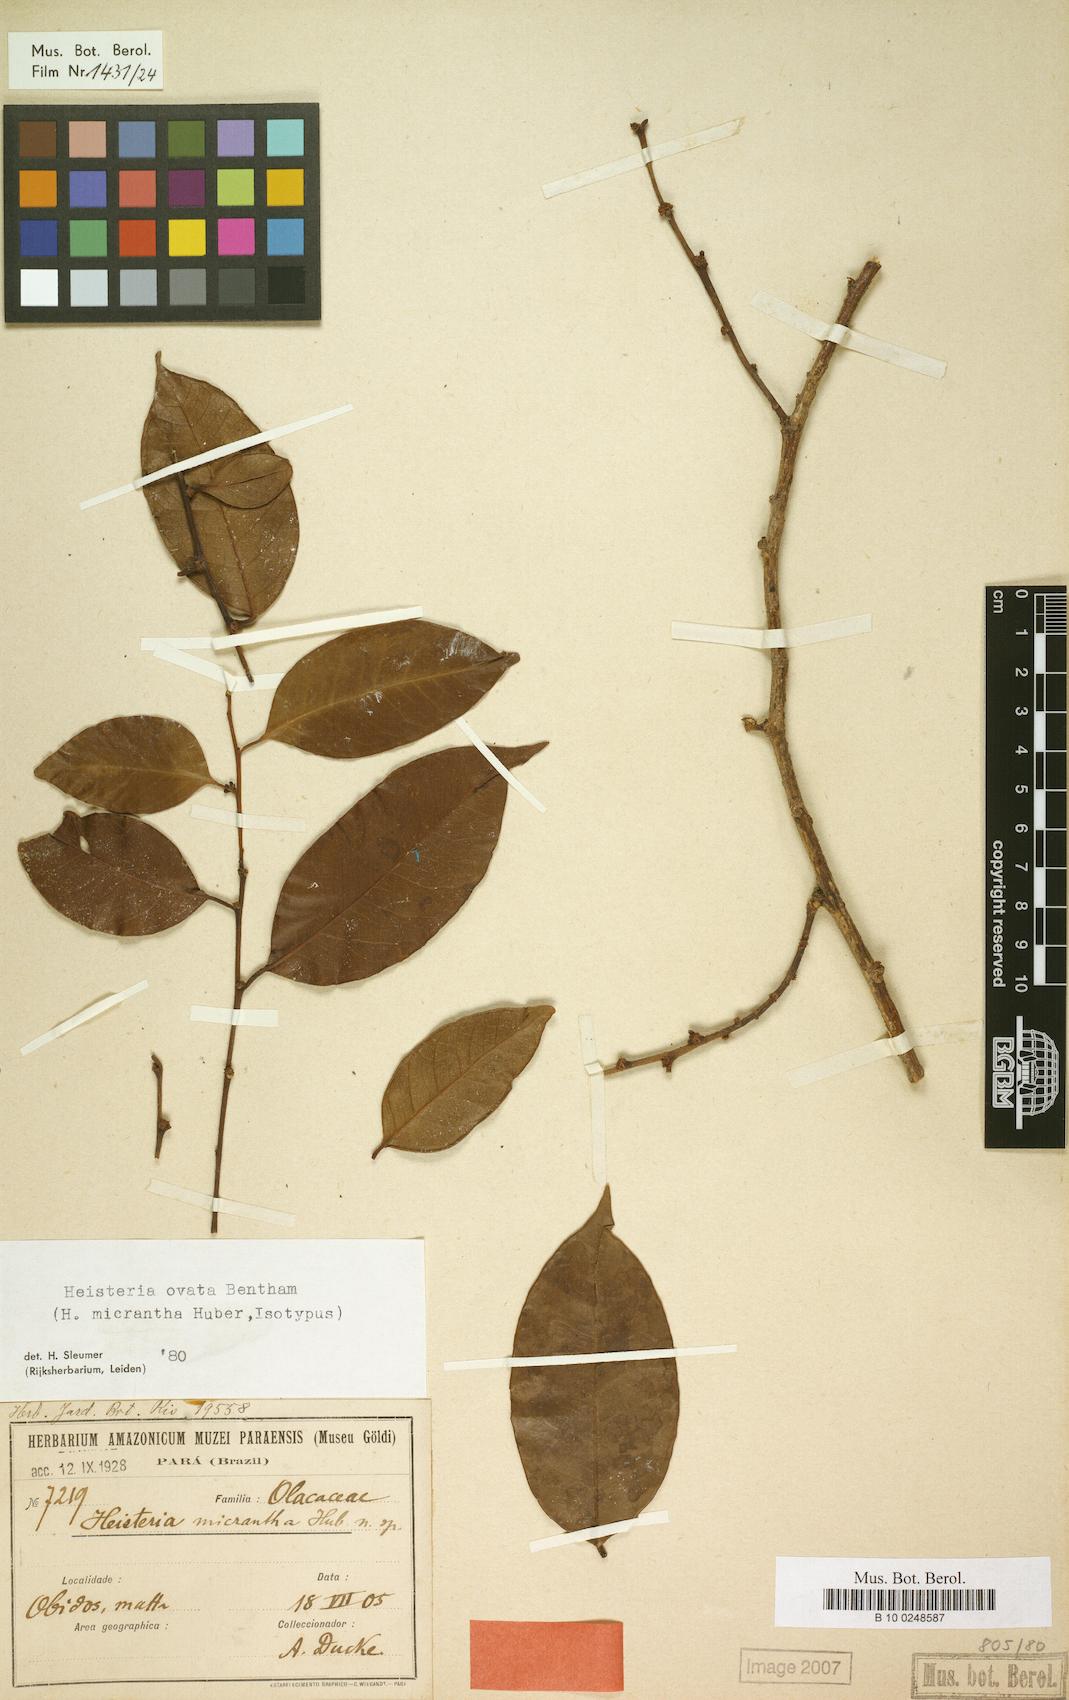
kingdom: Plantae
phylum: Tracheophyta
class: Magnoliopsida
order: Santalales
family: Erythropalaceae
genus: Heisteria
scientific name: Heisteria ovata
